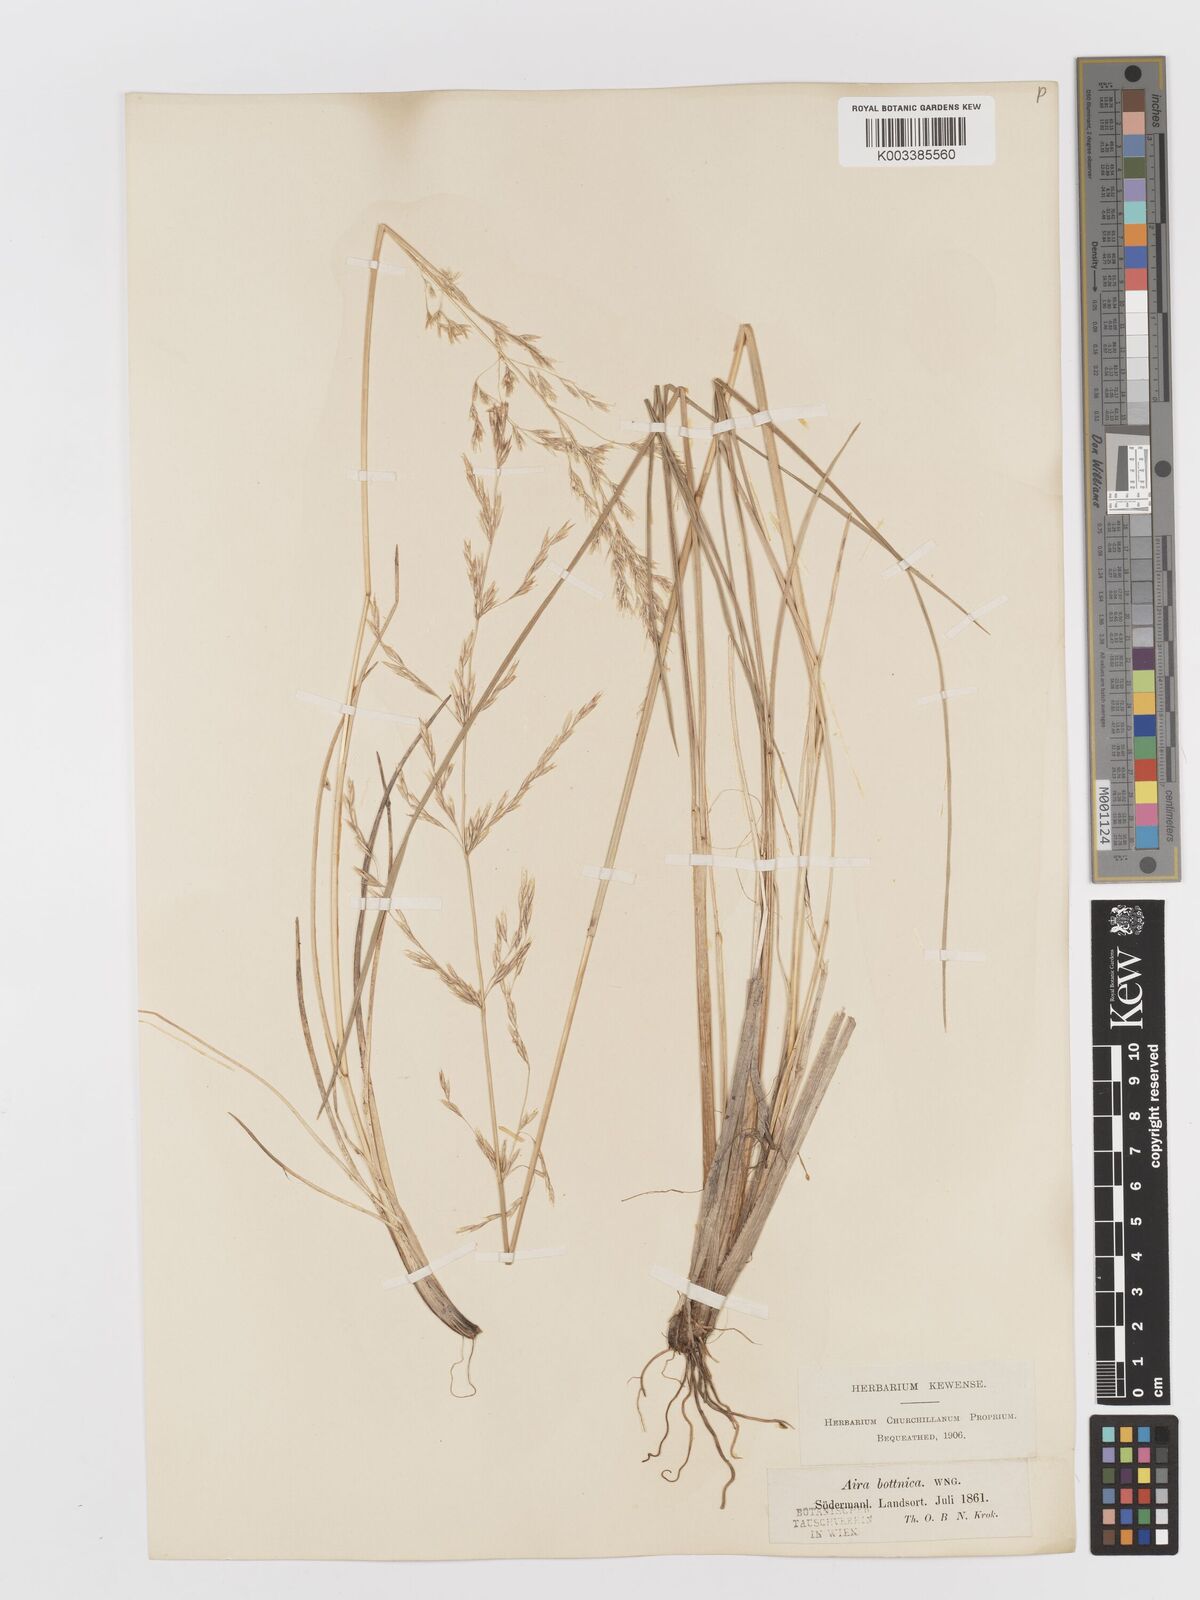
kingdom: Plantae
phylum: Tracheophyta
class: Liliopsida
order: Poales
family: Poaceae
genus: Deschampsia
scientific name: Deschampsia cespitosa
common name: Tufted hair-grass
